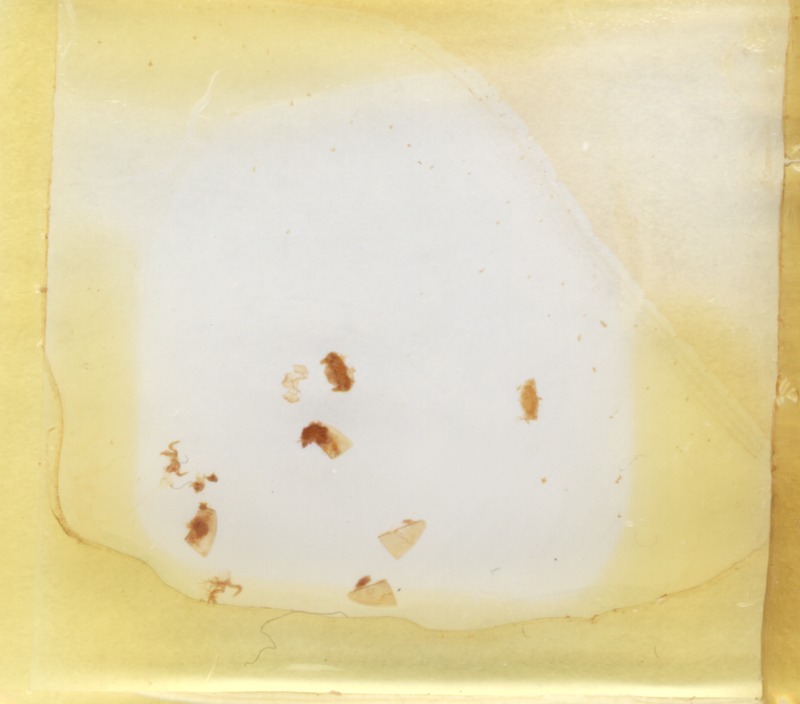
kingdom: Animalia
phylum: Arthropoda
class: Diplopoda
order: Glomerida
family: Glomeridae
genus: Onychoglomeris
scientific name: Onychoglomeris castanea
